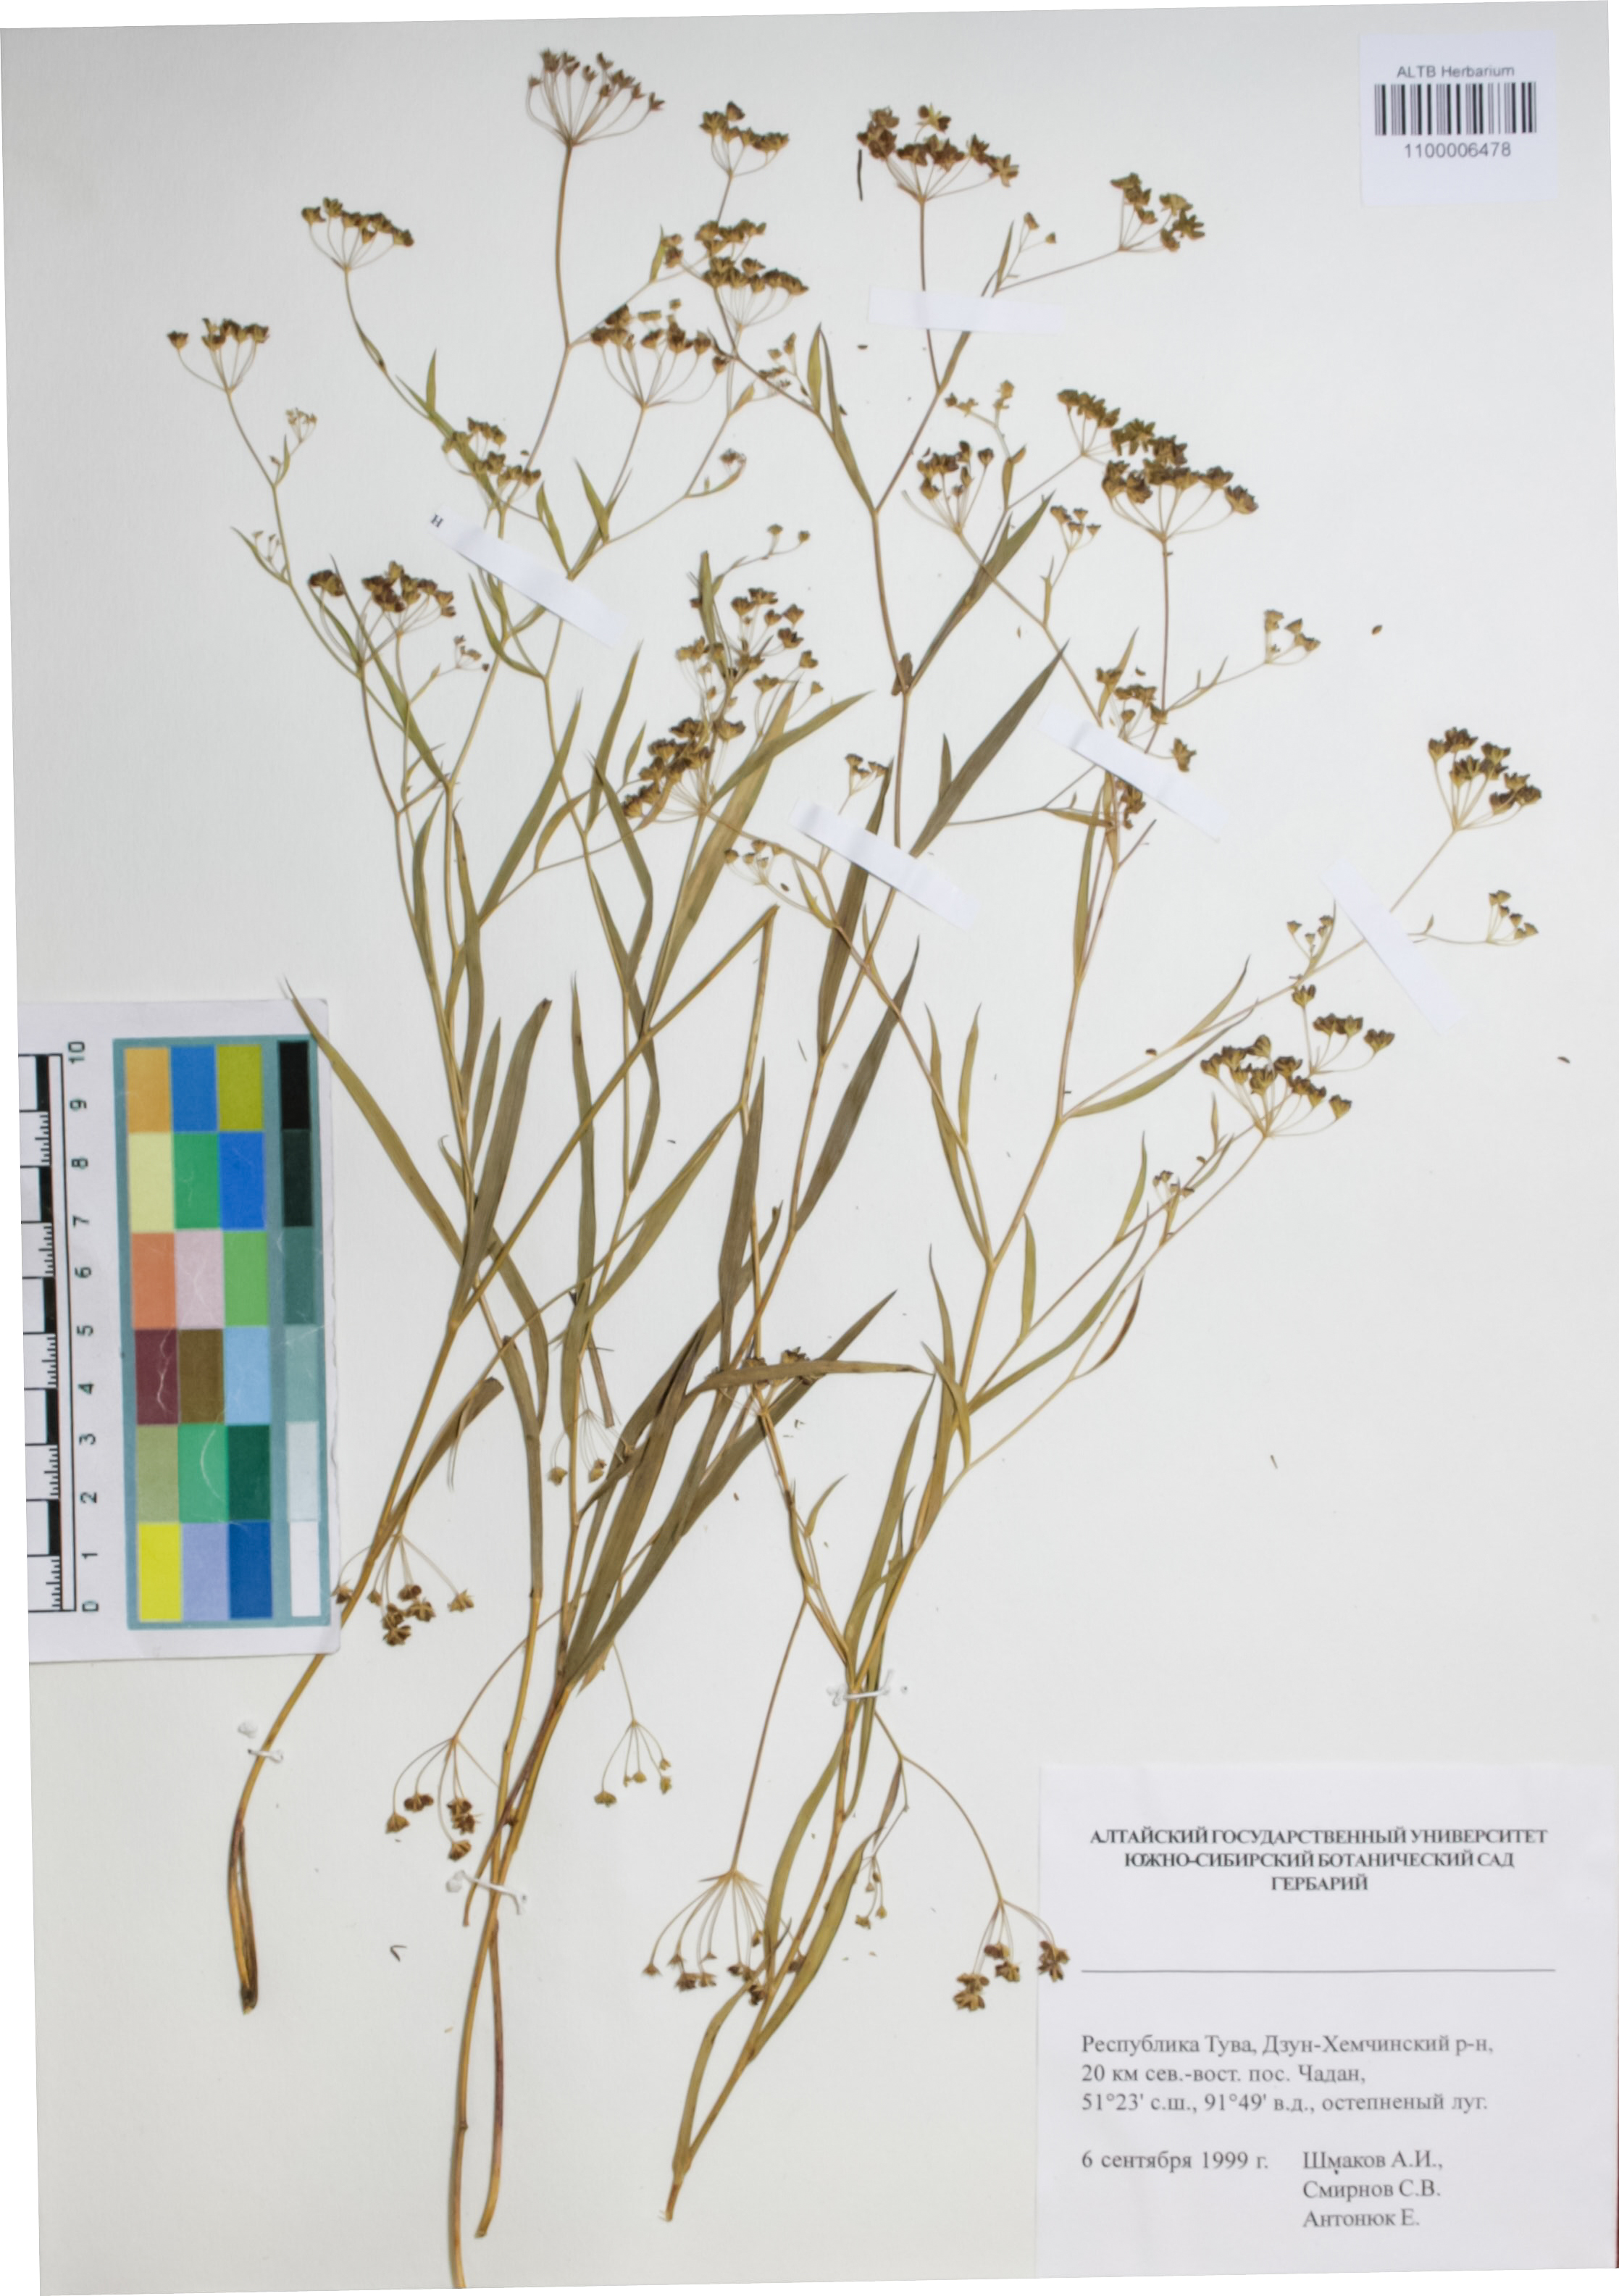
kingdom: Plantae
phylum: Tracheophyta
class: Magnoliopsida
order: Apiales
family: Apiaceae
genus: Bupleurum
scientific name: Bupleurum scorzonerifolium
